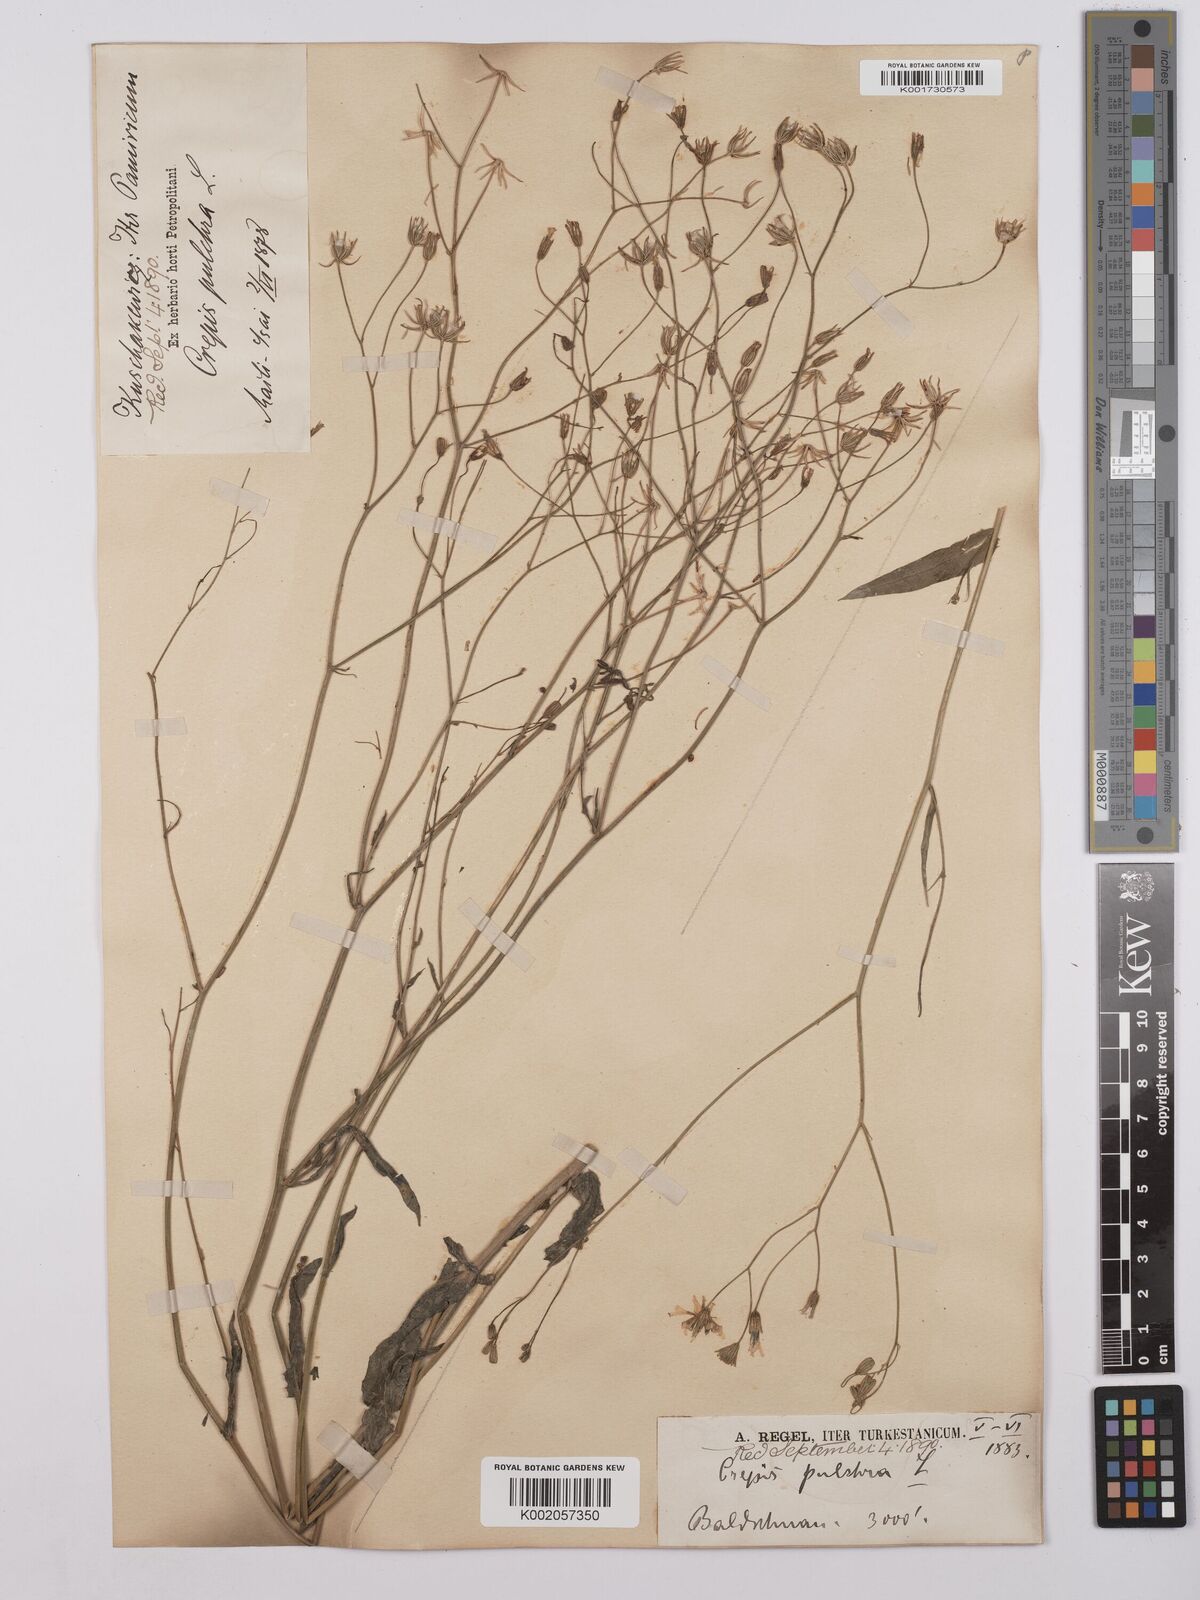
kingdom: Plantae
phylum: Tracheophyta
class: Magnoliopsida
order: Asterales
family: Asteraceae
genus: Crepis
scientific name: Crepis pulchra
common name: Hawk's-beard
